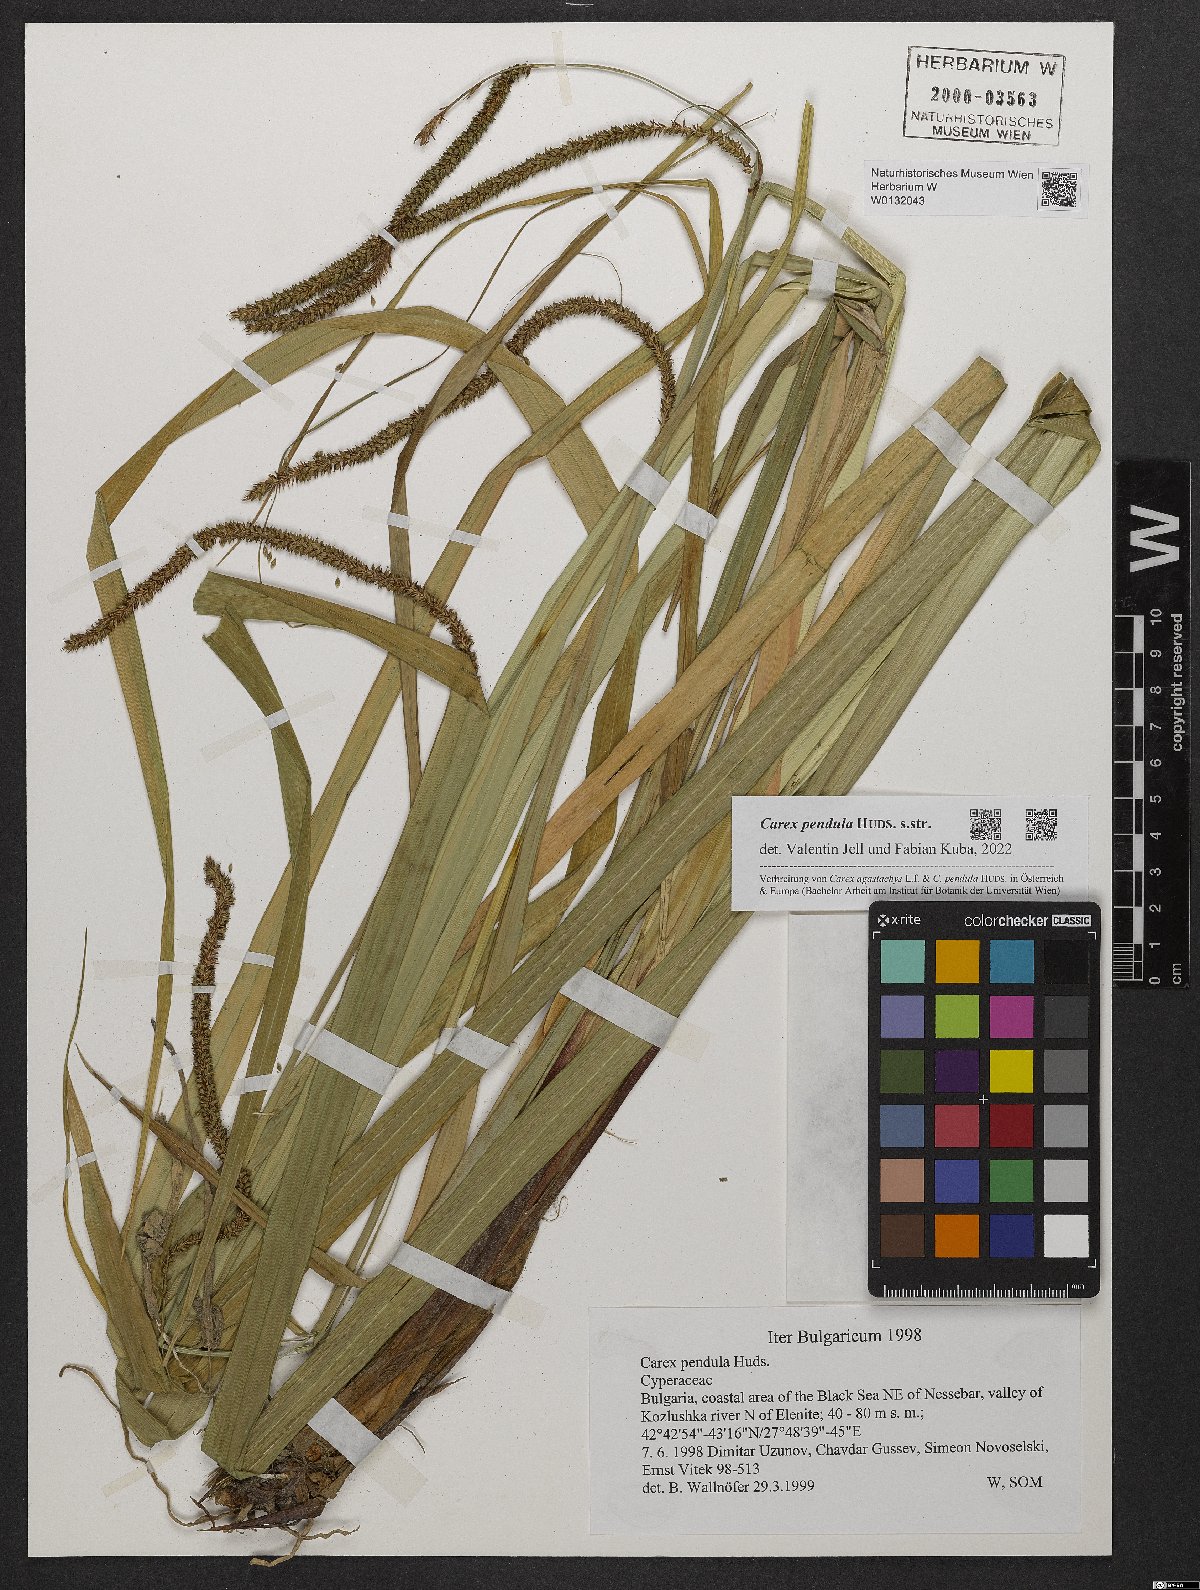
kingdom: Plantae
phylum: Tracheophyta
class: Liliopsida
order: Poales
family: Cyperaceae
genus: Carex
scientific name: Carex pendula
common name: Pendulous sedge
